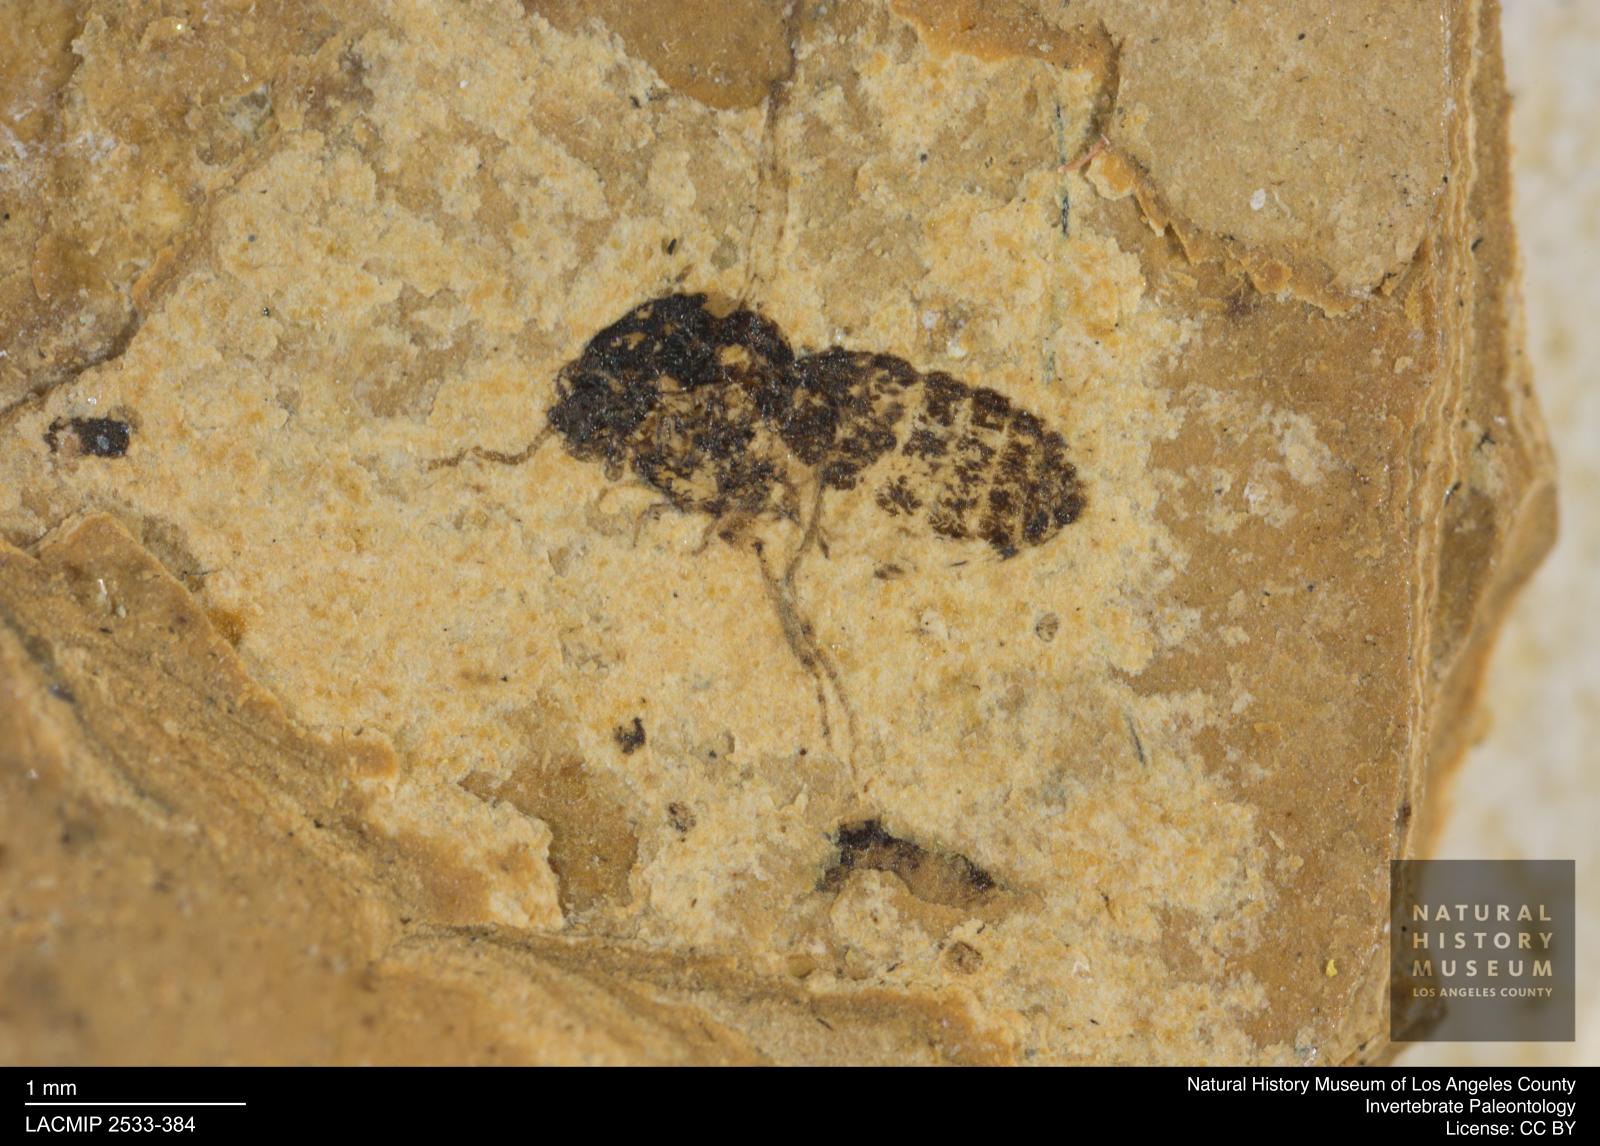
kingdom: Animalia
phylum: Arthropoda
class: Insecta
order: Diptera
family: Ceratopogonidae
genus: Culicoides
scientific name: Culicoides obscuratus
